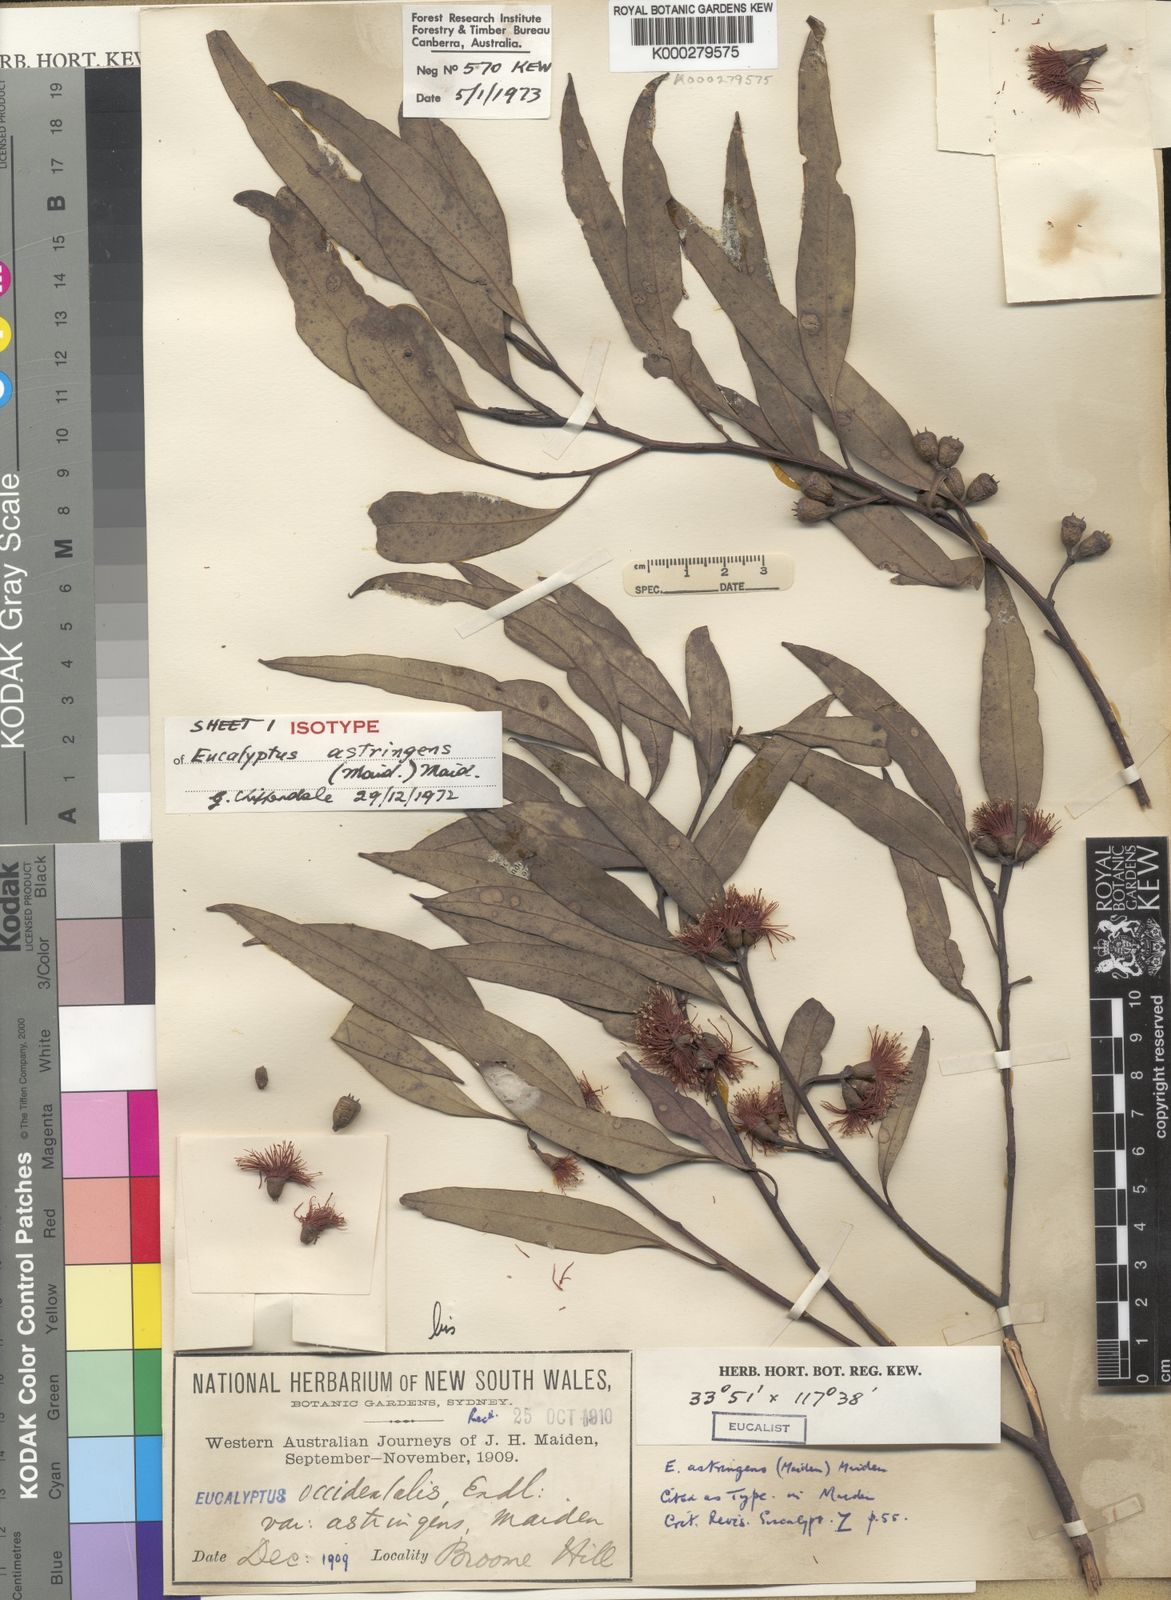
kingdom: Plantae
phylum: Tracheophyta
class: Magnoliopsida
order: Myrtales
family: Myrtaceae
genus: Eucalyptus
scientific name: Eucalyptus astringens
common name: Brown mallet
